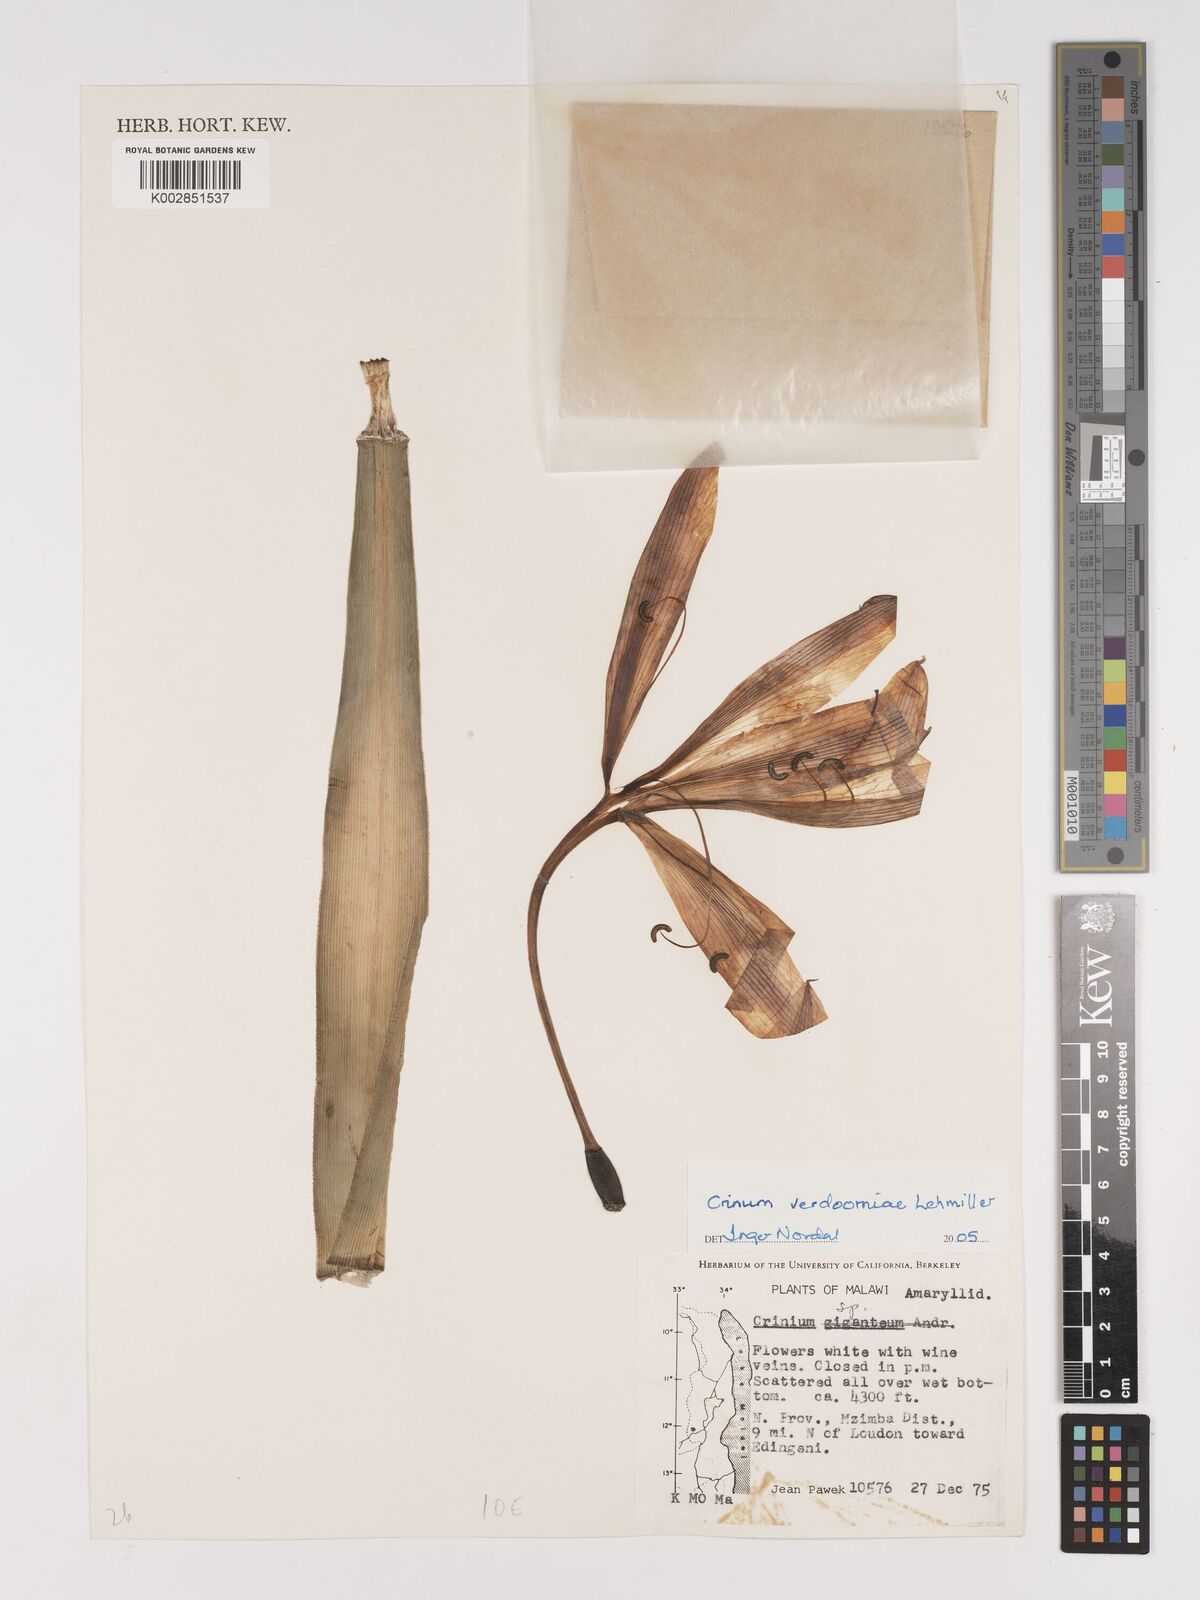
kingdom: Plantae
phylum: Tracheophyta
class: Liliopsida
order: Asparagales
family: Amaryllidaceae
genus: Crinum
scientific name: Crinum verdoorniae
